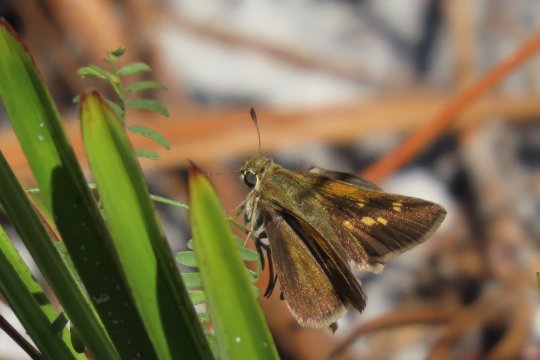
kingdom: Animalia
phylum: Arthropoda
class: Insecta
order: Lepidoptera
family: Hesperiidae
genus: Polites
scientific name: Polites themistocles
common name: Tawny-edged Skipper
